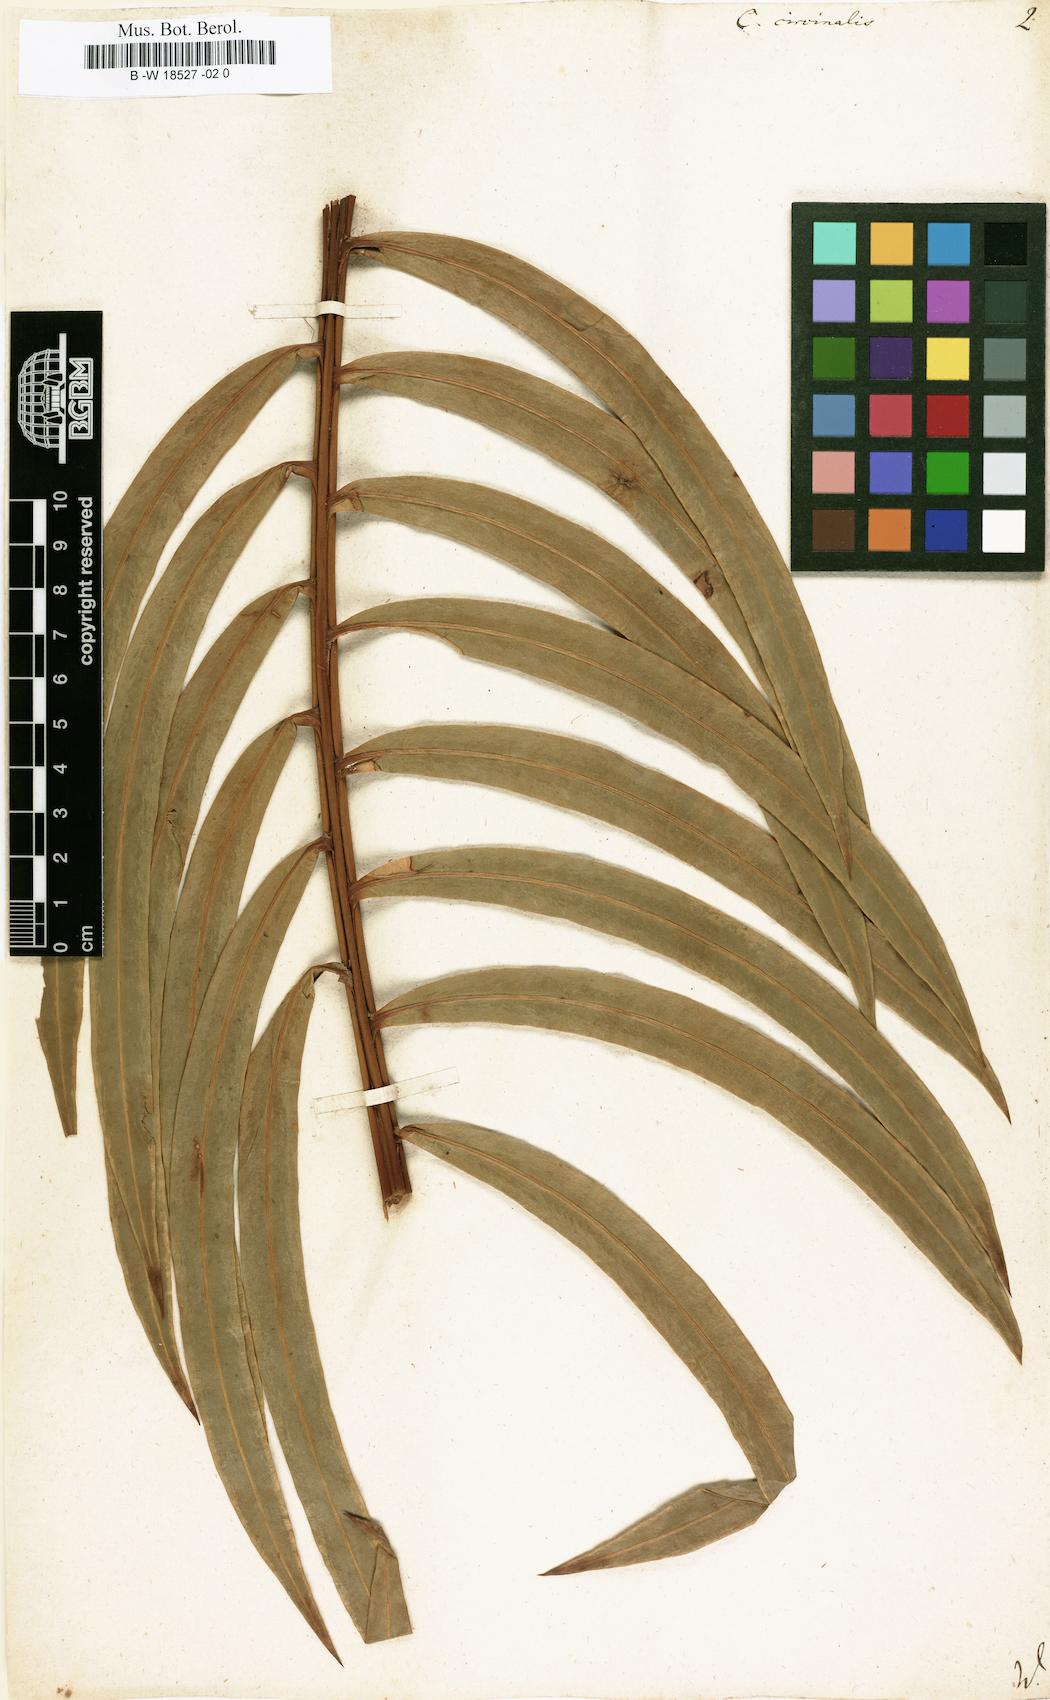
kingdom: Plantae
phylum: Tracheophyta
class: Cycadopsida
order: Cycadales
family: Cycadaceae
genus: Cycas
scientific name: Cycas circinalis
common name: Queen sago
